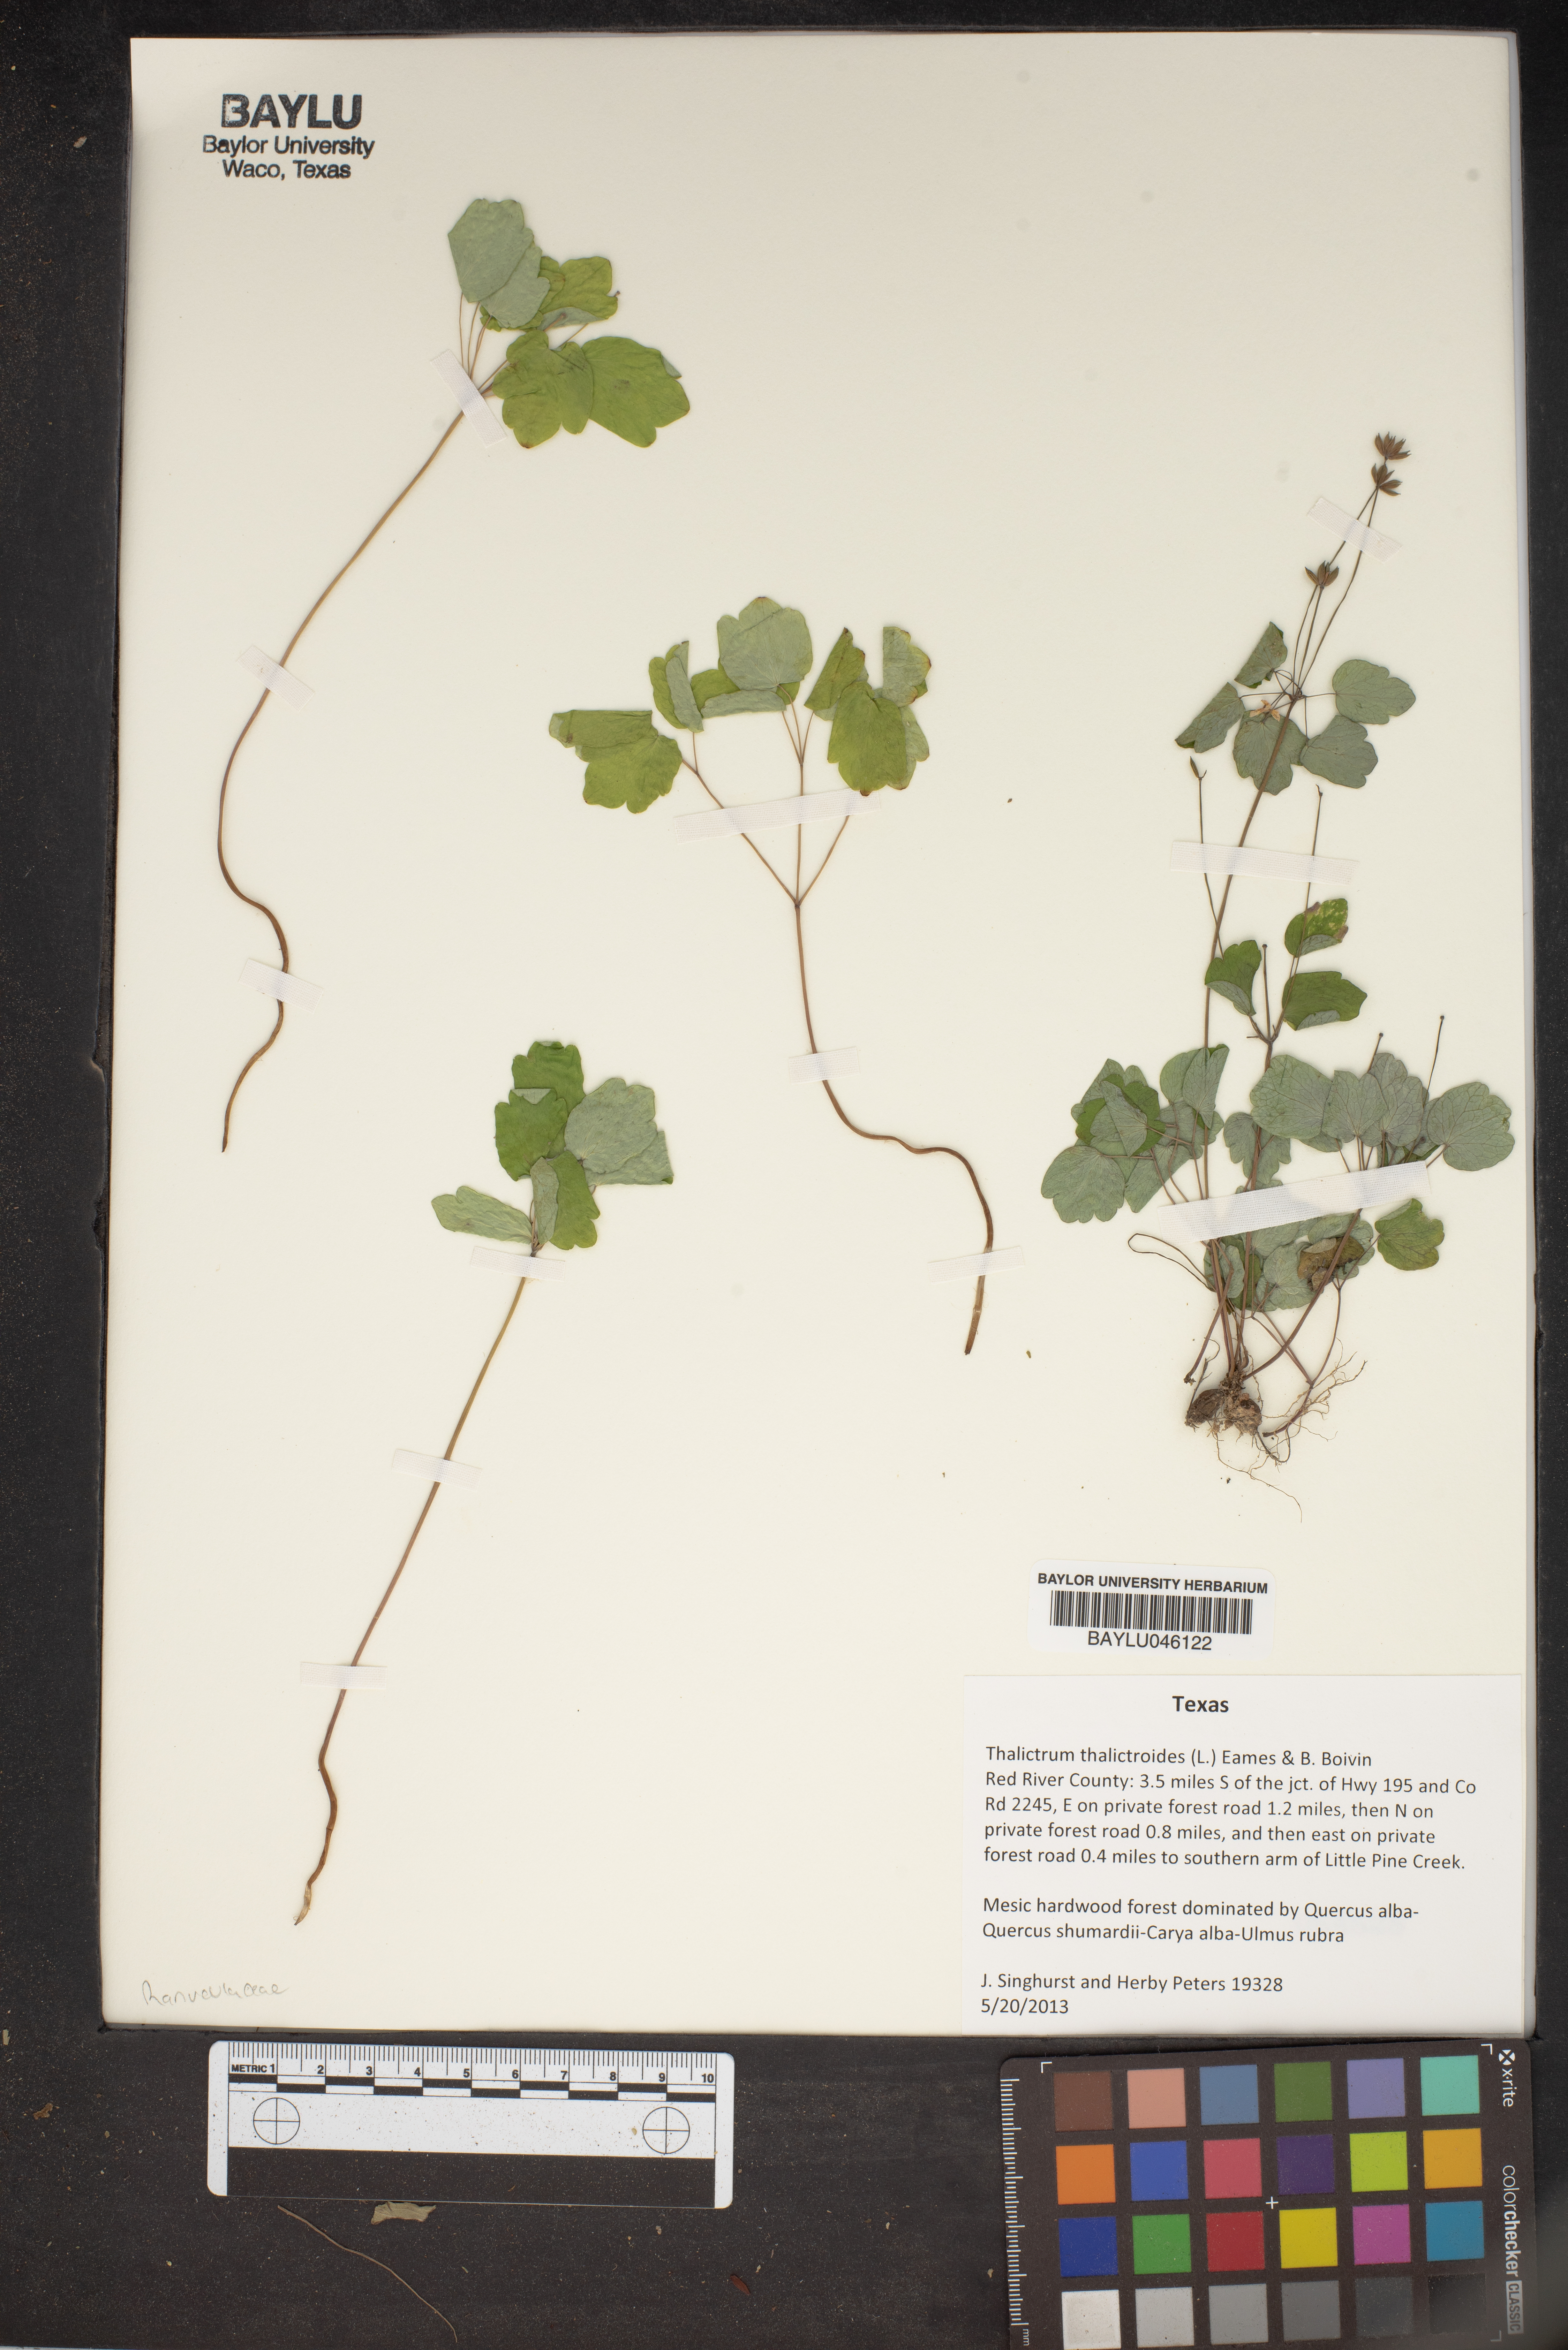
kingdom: Plantae
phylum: Tracheophyta
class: Magnoliopsida
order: Ranunculales
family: Ranunculaceae
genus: Thalictrum
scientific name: Thalictrum thalictroides
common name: Rue-anemone
